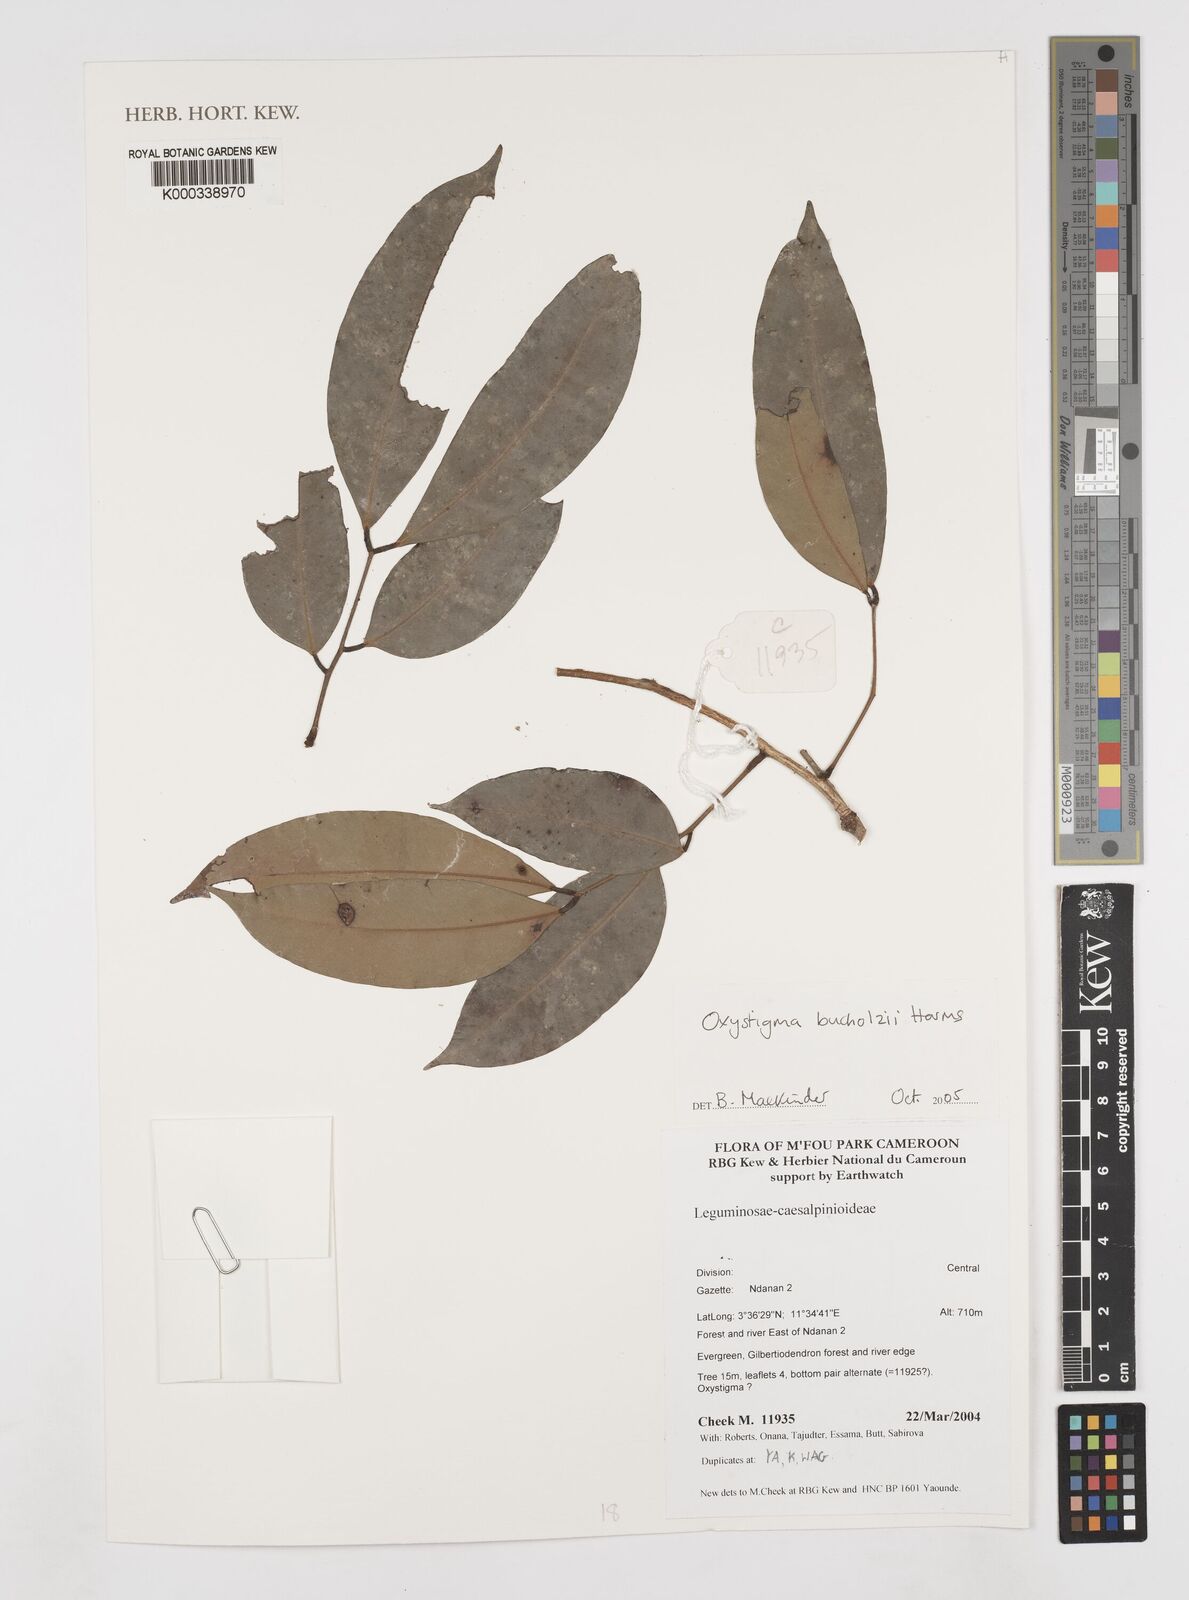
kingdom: Plantae
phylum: Tracheophyta
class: Magnoliopsida
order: Fabales
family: Fabaceae
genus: Prioria
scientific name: Prioria buchholzii
